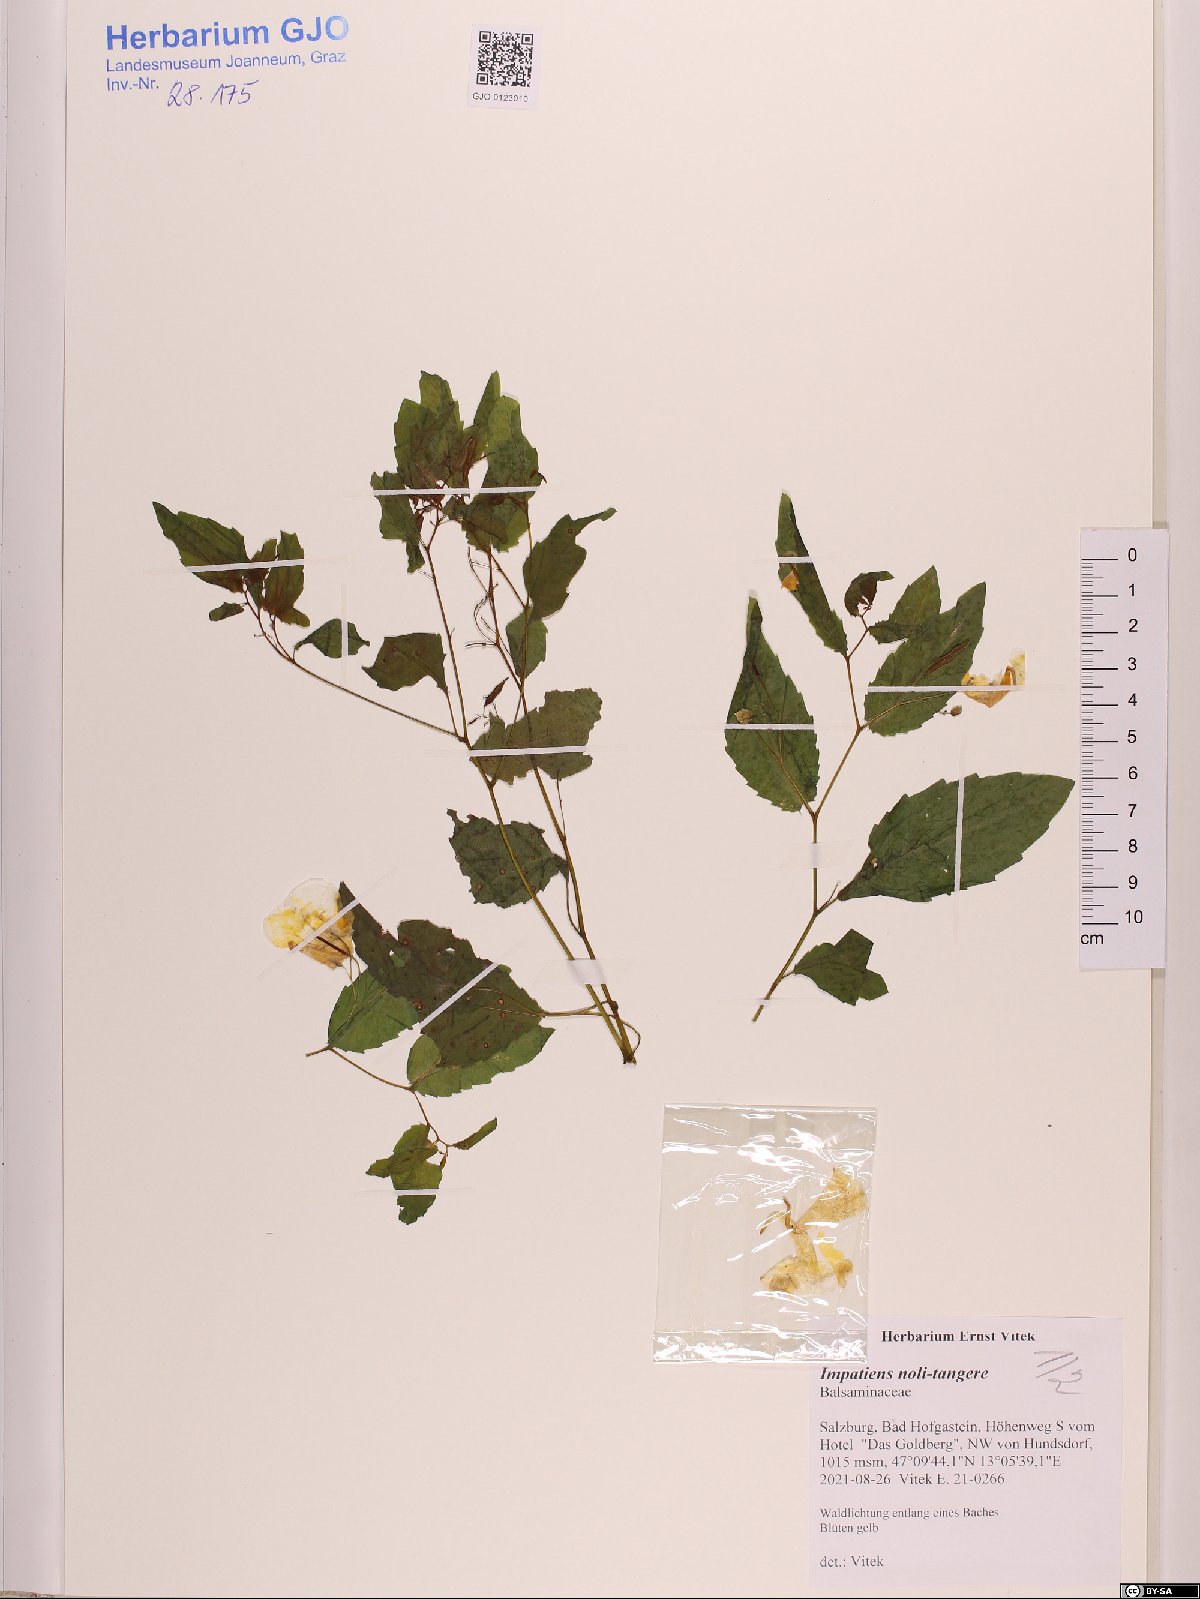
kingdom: Plantae
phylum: Tracheophyta
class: Magnoliopsida
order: Ericales
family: Balsaminaceae
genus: Impatiens
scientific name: Impatiens noli-tangere
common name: Touch-me-not balsam
